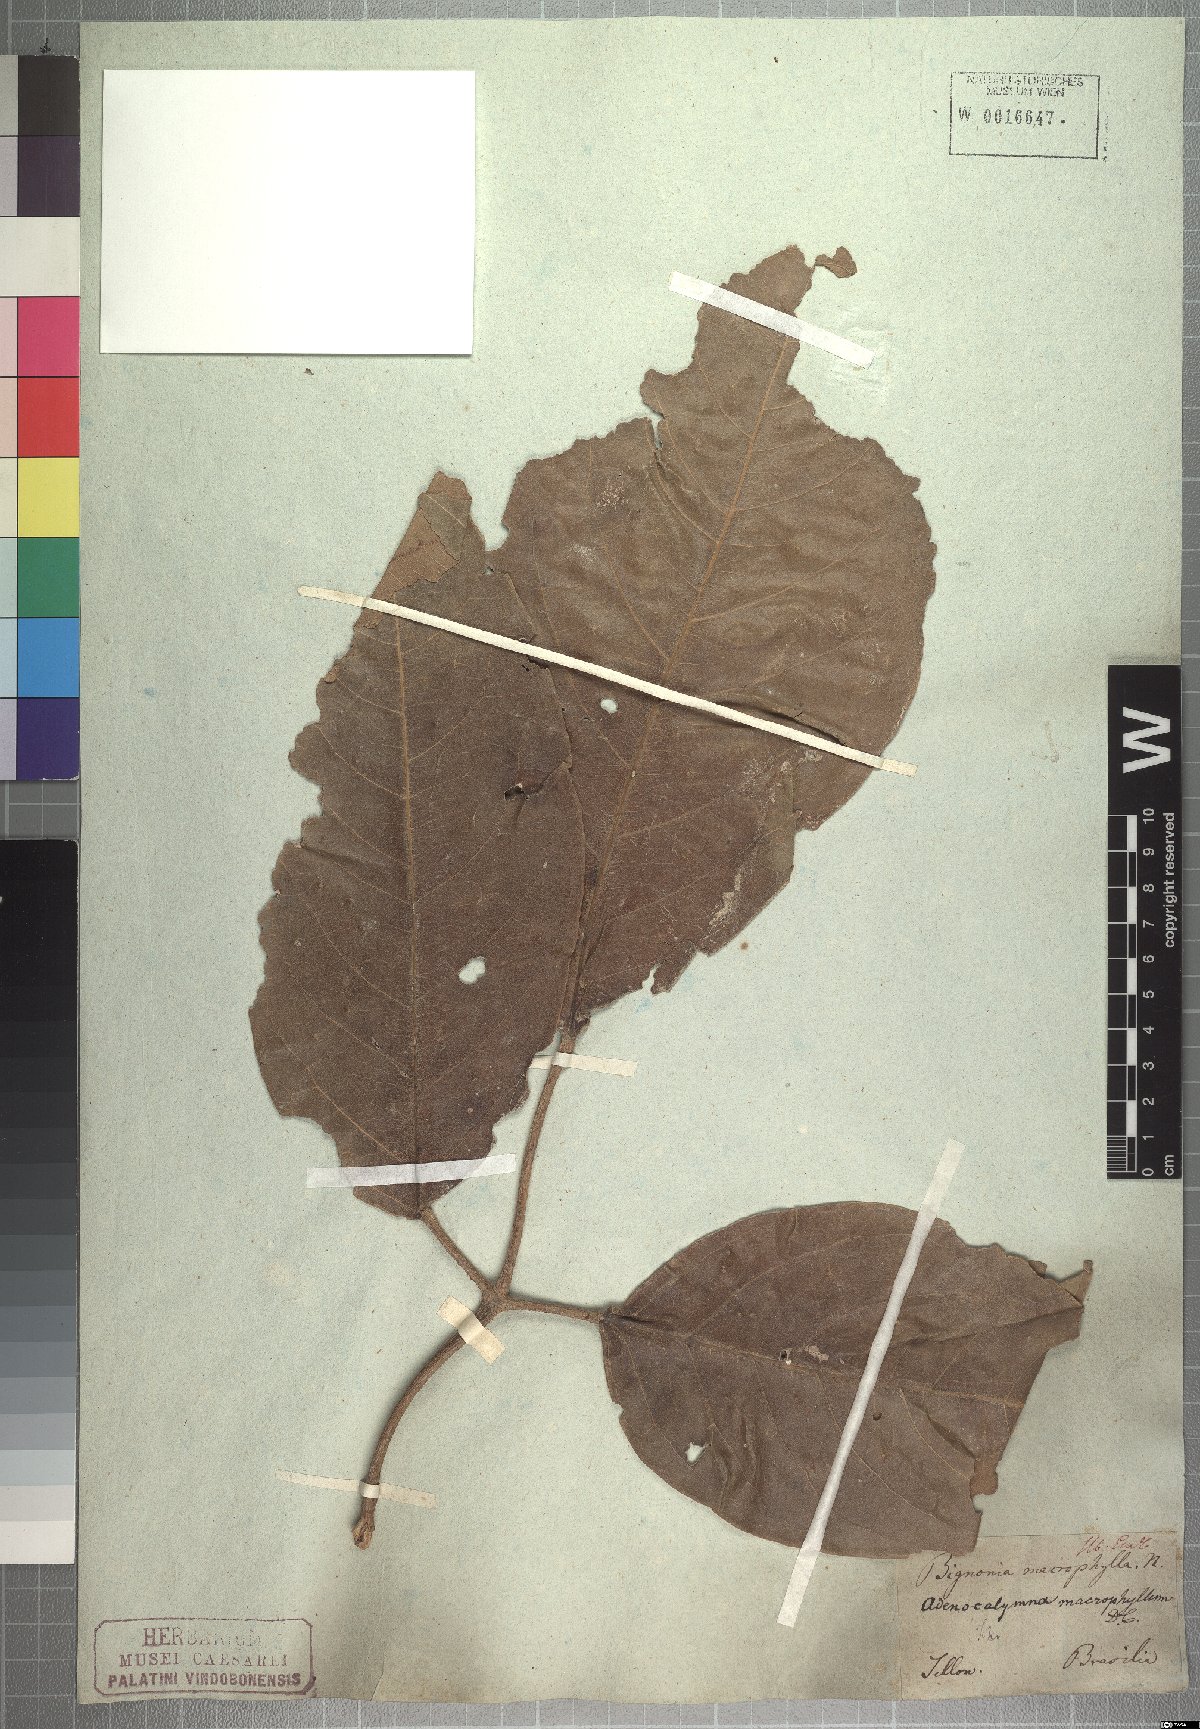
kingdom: Plantae
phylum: Tracheophyta
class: Magnoliopsida
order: Lamiales
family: Bignoniaceae
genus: Adenocalymma
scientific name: Adenocalymma ternatum
